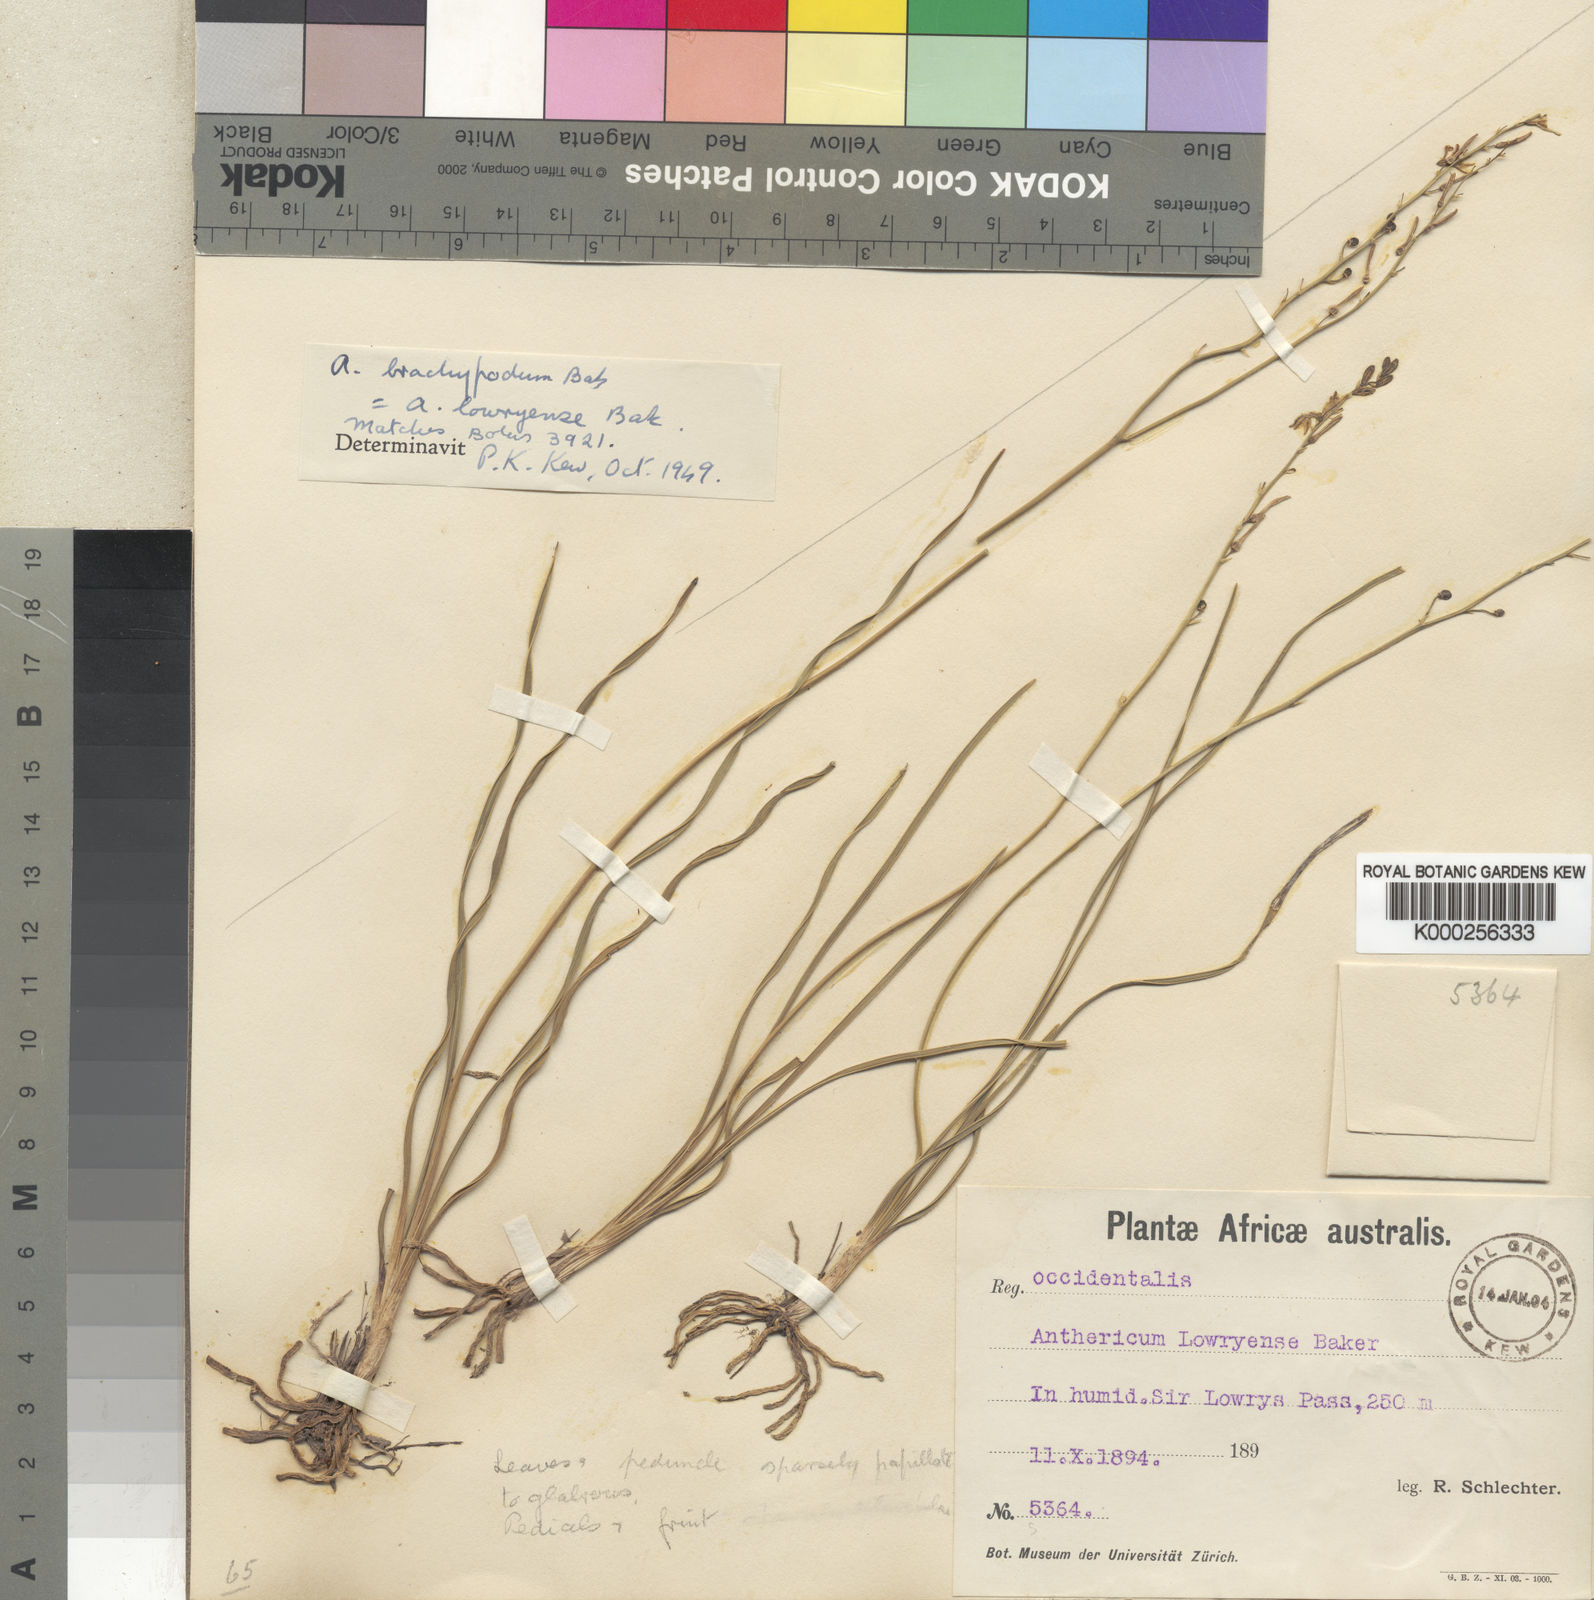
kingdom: Plantae
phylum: Tracheophyta
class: Liliopsida
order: Asparagales
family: Asphodelaceae
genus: Trachyandra
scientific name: Trachyandra brachypoda
